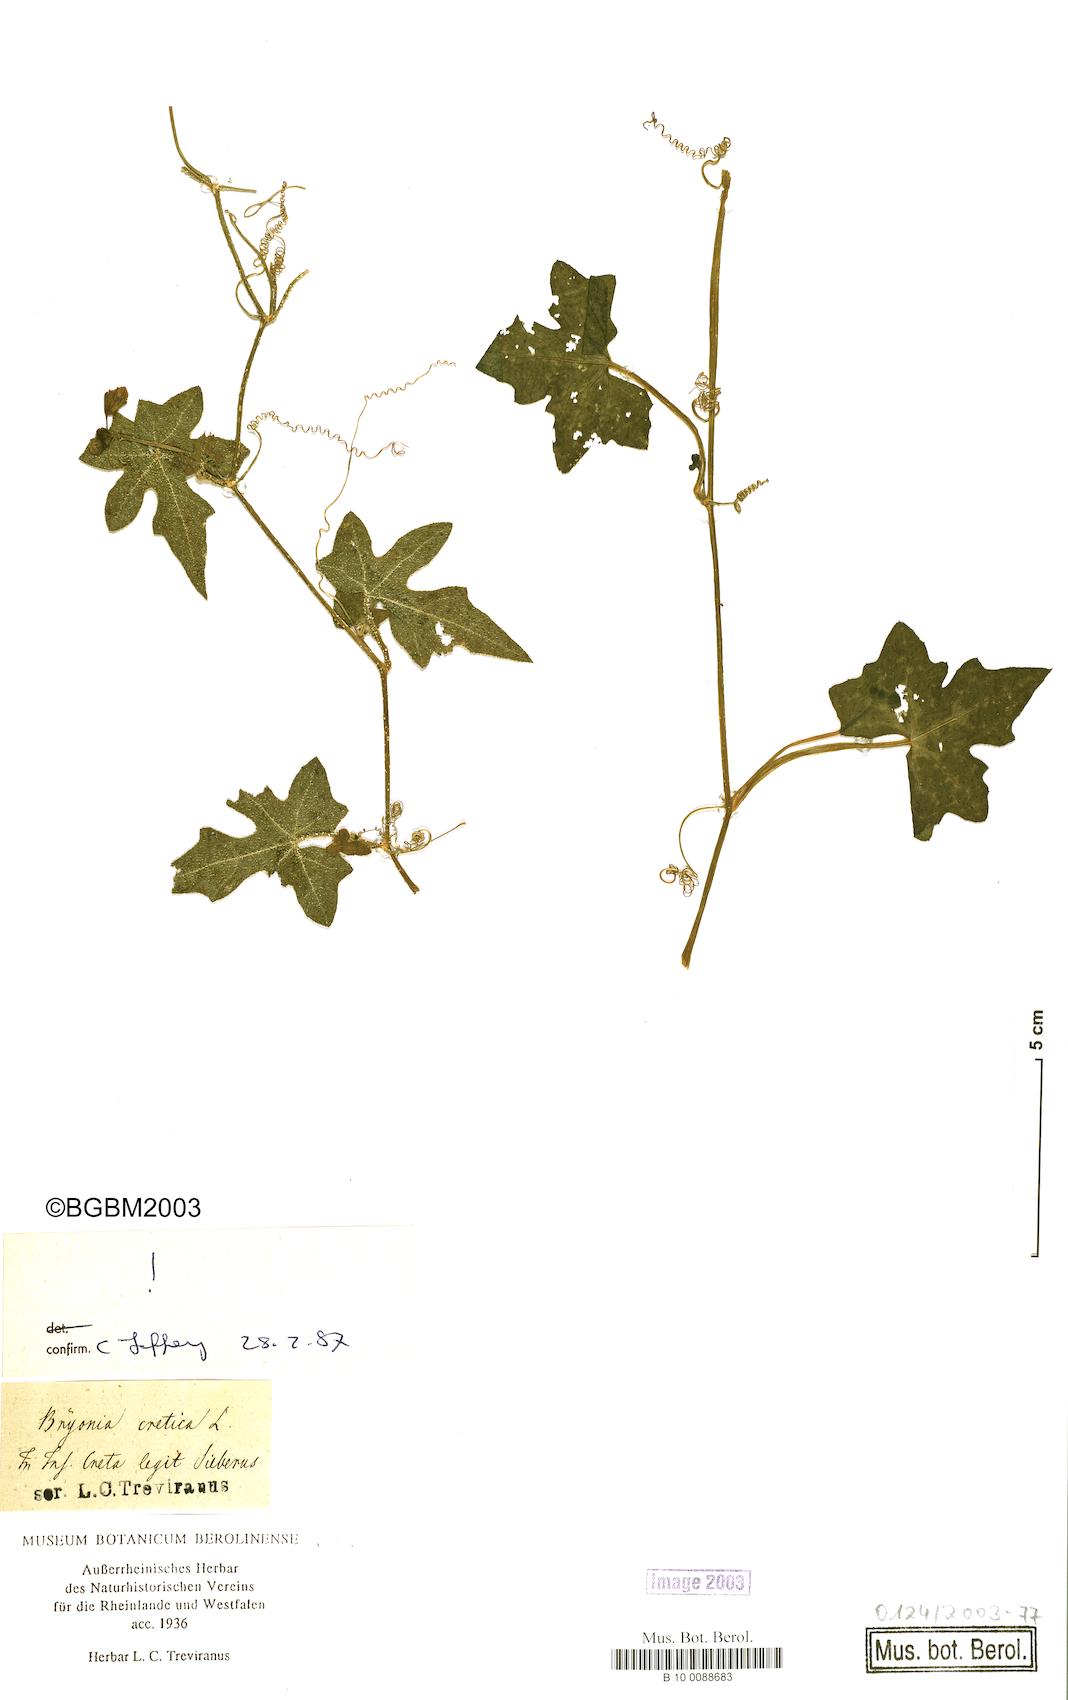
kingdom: Plantae
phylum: Tracheophyta
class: Magnoliopsida
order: Cucurbitales
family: Cucurbitaceae
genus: Bryonia
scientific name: Bryonia cretica
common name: Cretan bryony
